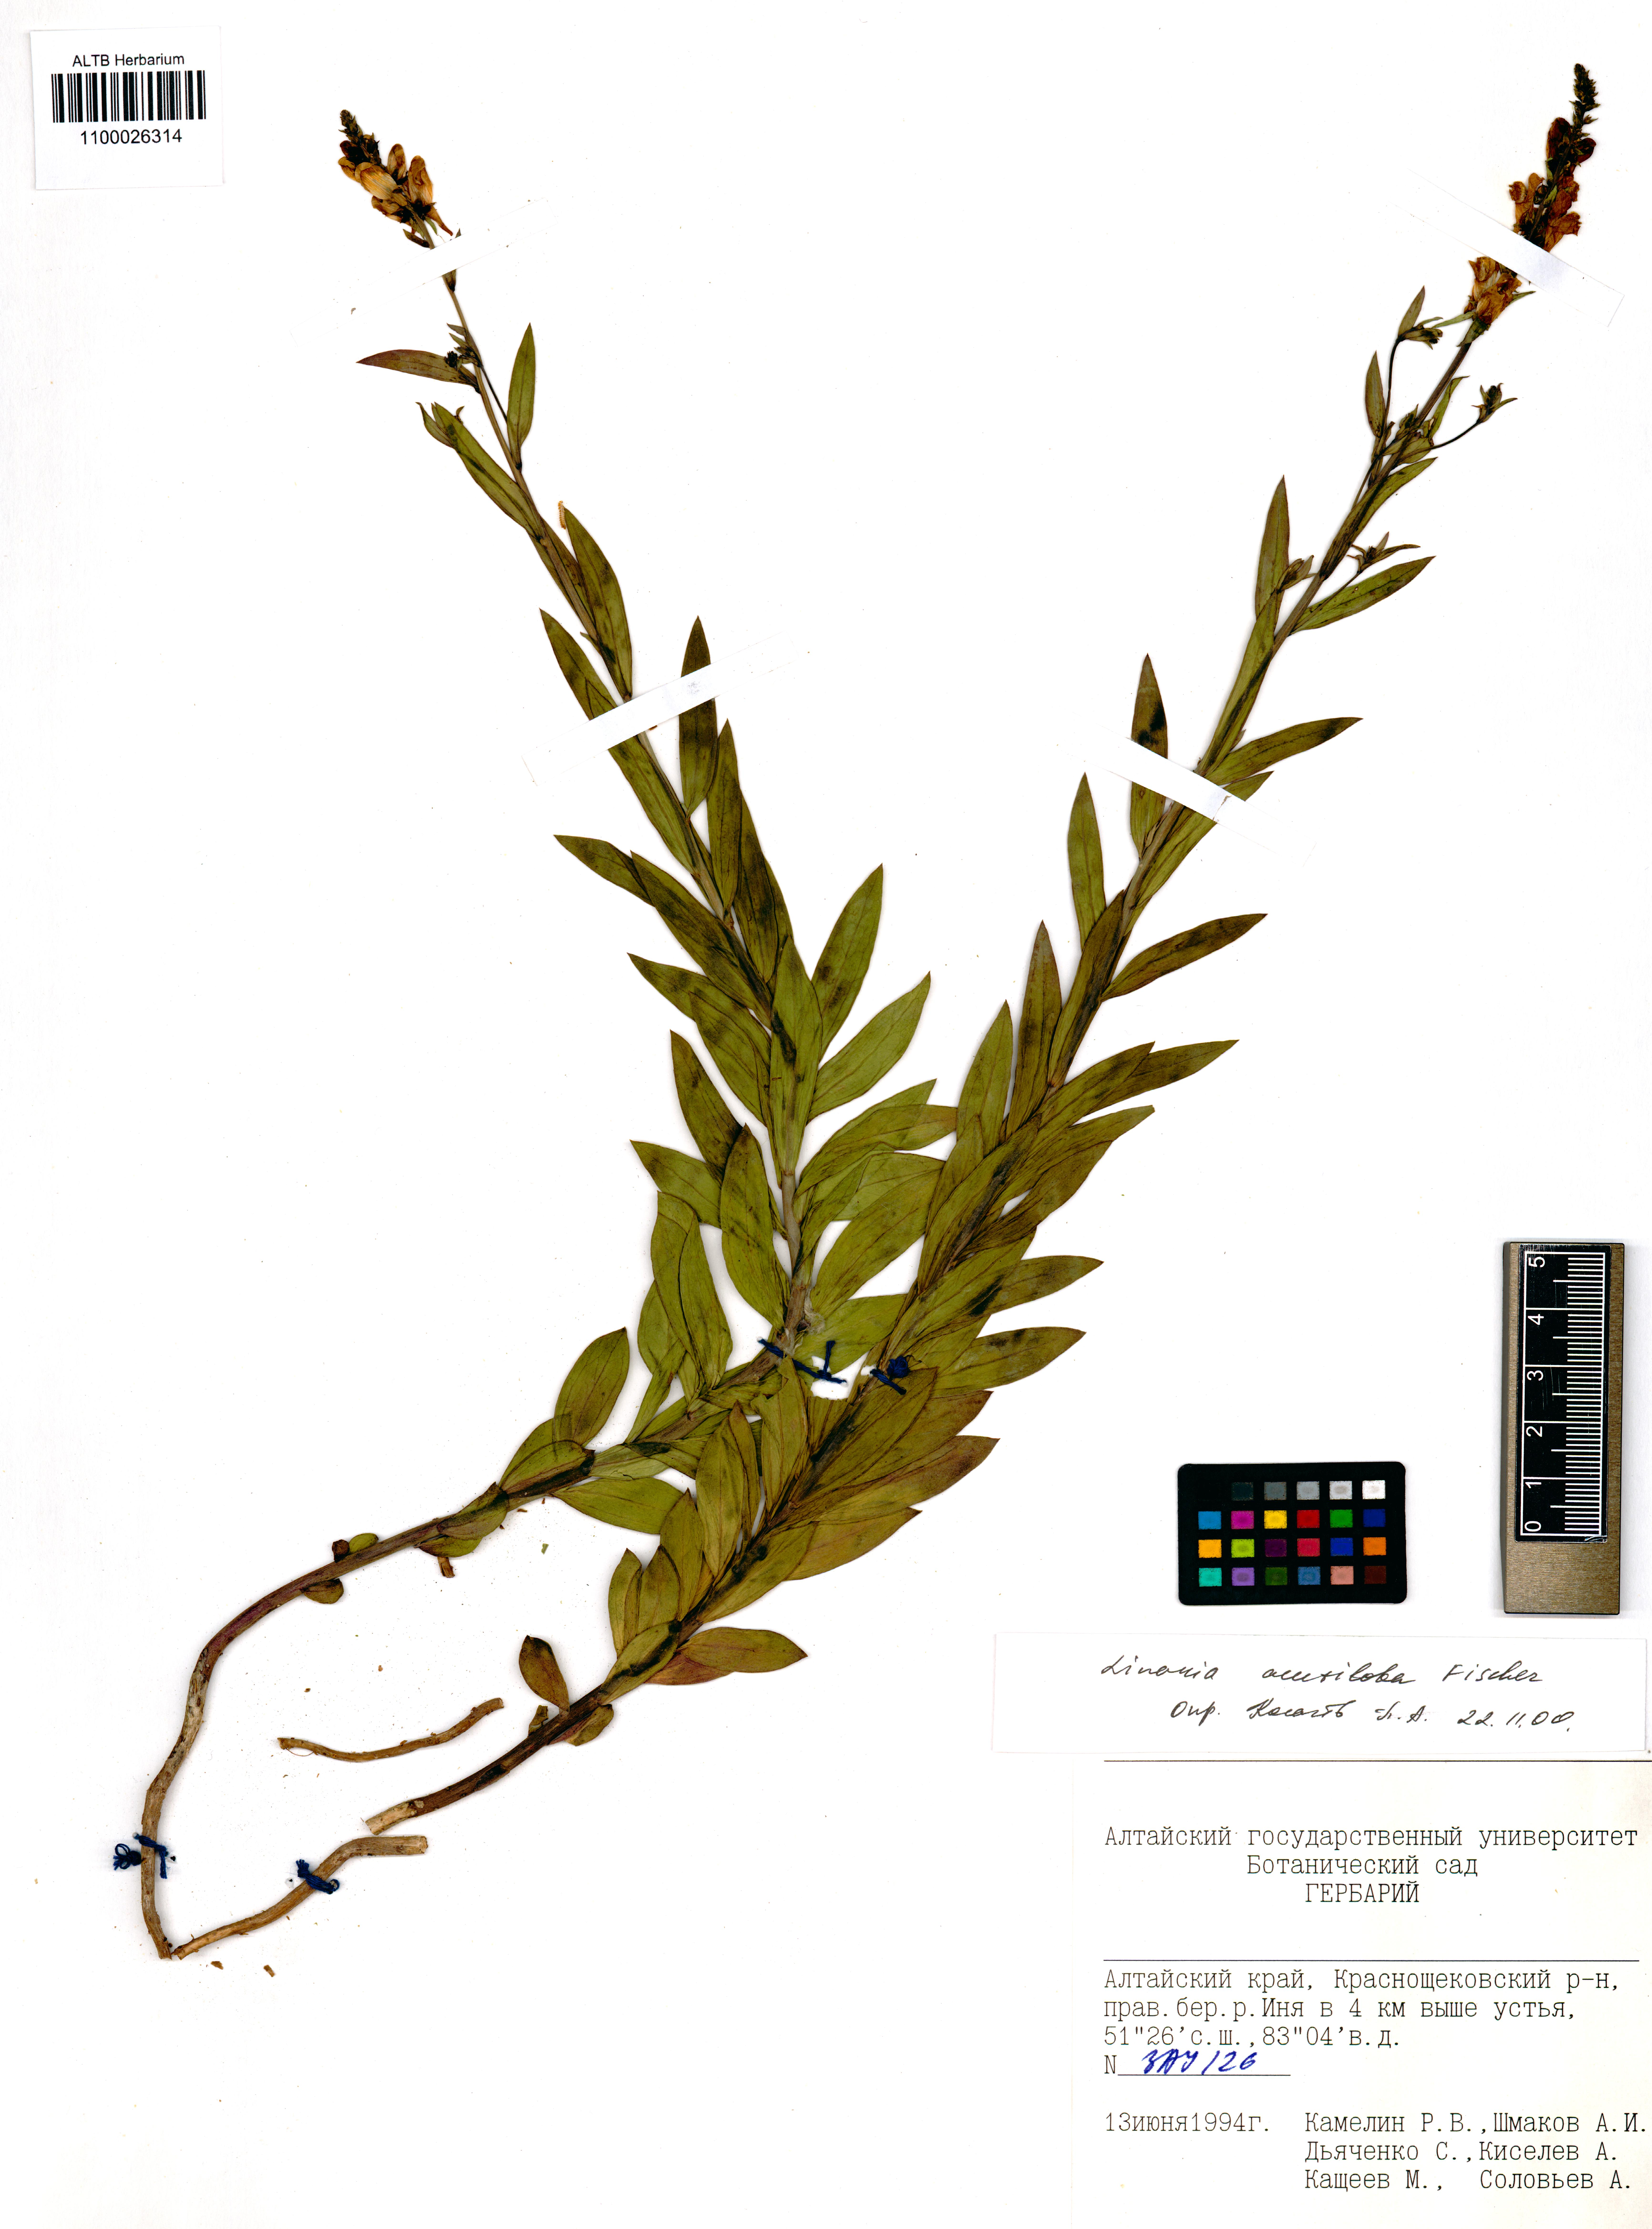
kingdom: Plantae
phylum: Tracheophyta
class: Magnoliopsida
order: Lamiales
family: Plantaginaceae
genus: Linaria
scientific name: Linaria acutiloba
